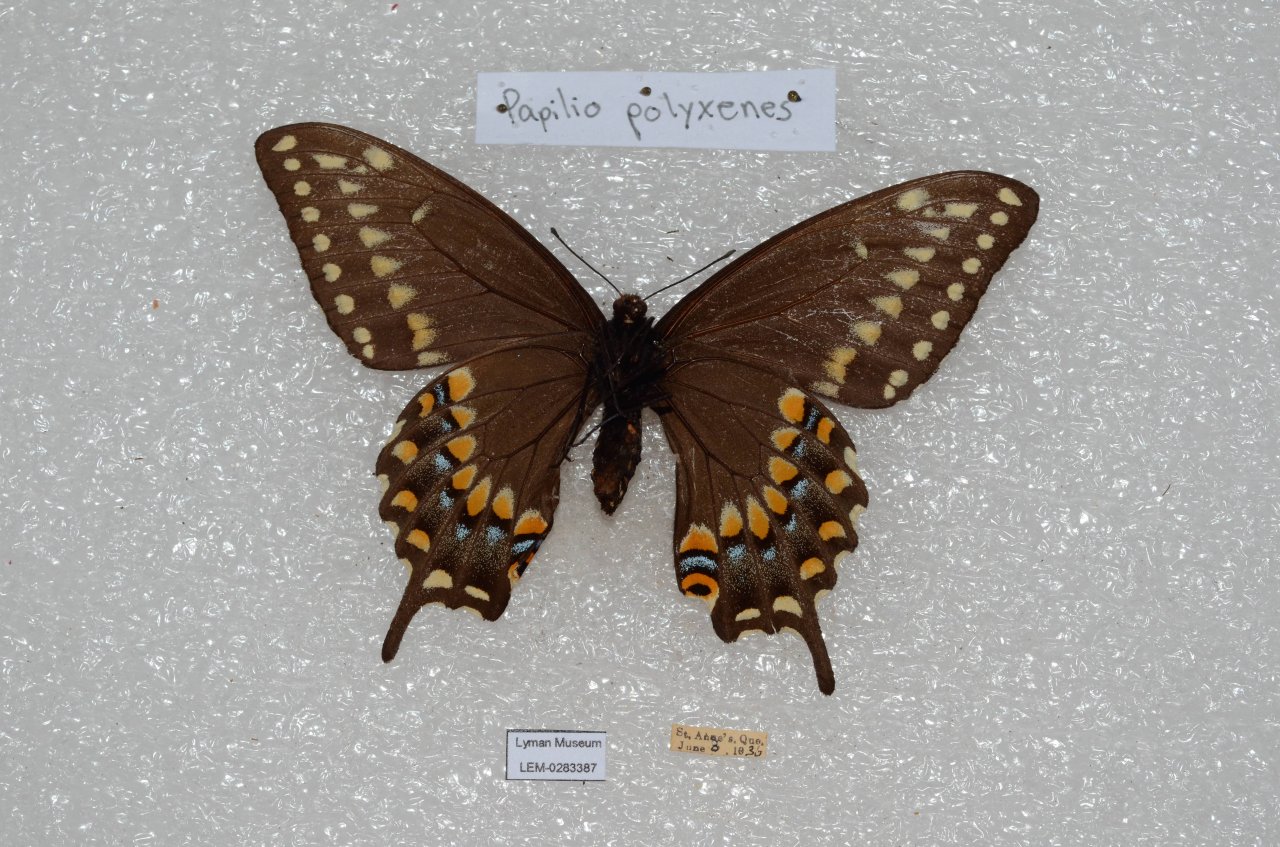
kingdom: Animalia
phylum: Arthropoda
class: Insecta
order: Lepidoptera
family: Papilionidae
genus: Papilio
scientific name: Papilio polyxenes
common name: Black Swallowtail
